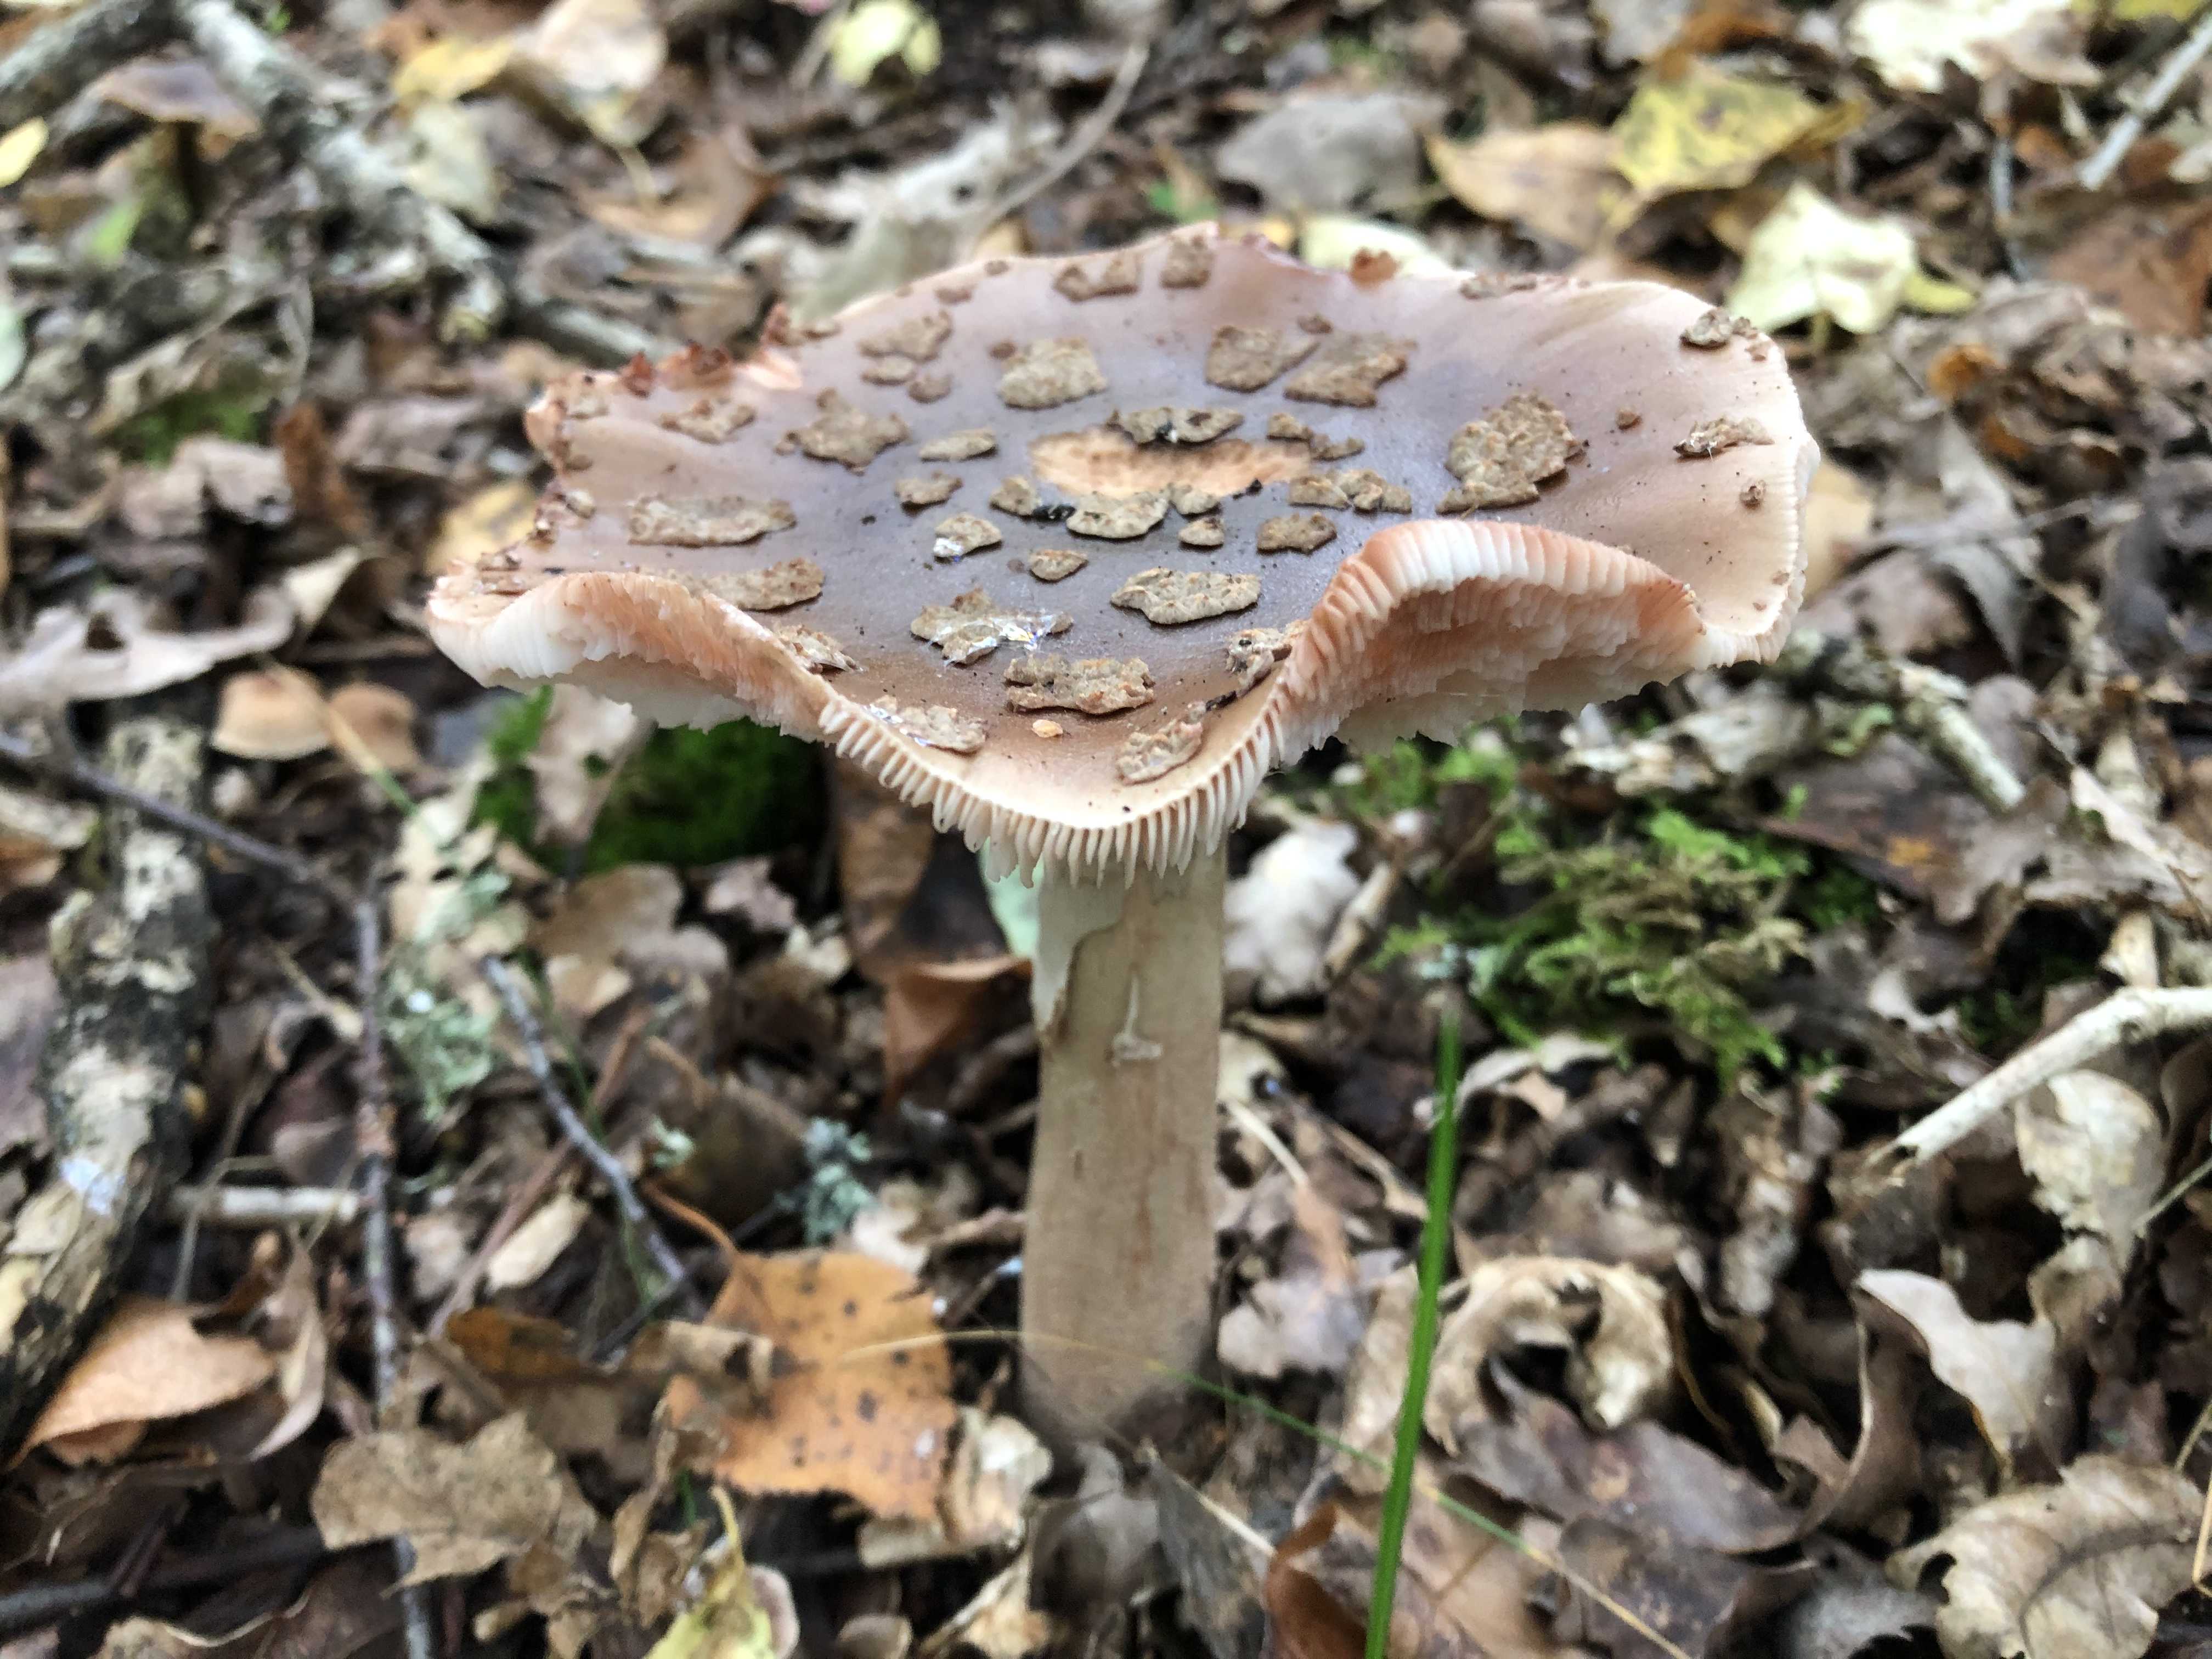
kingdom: Fungi
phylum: Basidiomycota
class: Agaricomycetes
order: Agaricales
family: Amanitaceae
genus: Amanita
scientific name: Amanita rubescens
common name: rødmende fluesvamp
